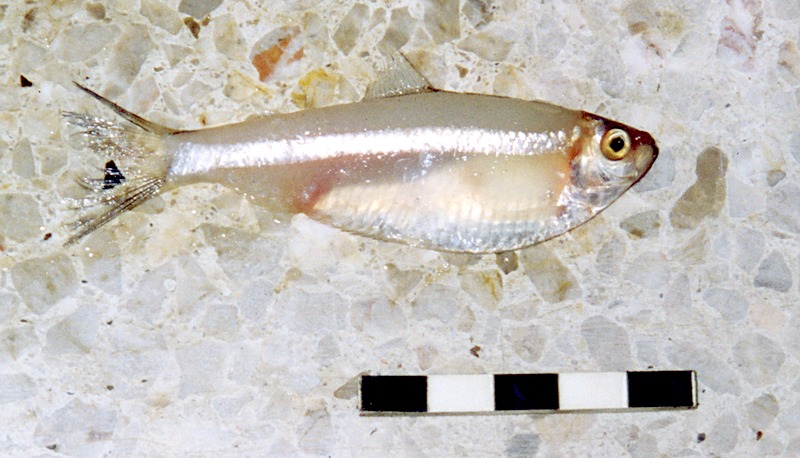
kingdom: Animalia
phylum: Chordata
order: Clupeiformes
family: Clupeidae
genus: Sardinella
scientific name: Sardinella albella
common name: White sardinella
